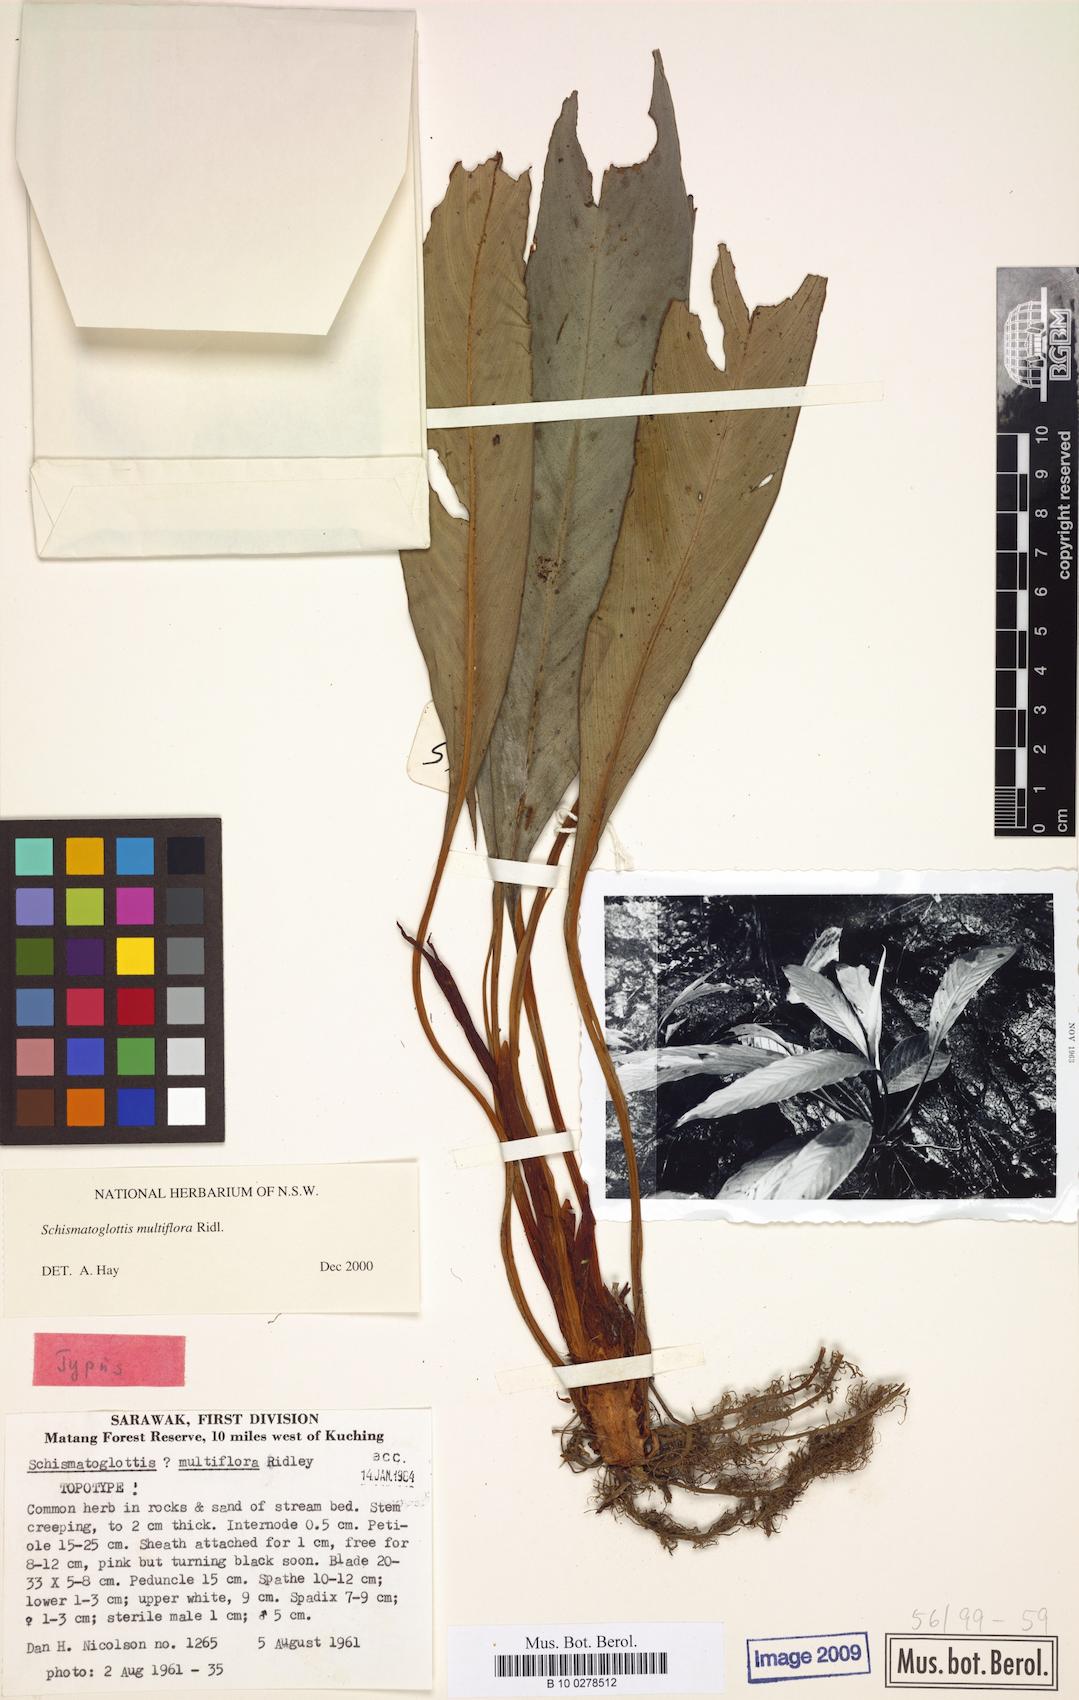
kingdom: Plantae
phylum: Tracheophyta
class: Liliopsida
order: Alismatales
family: Araceae
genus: Schismatoglottis
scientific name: Schismatoglottis multiflora
